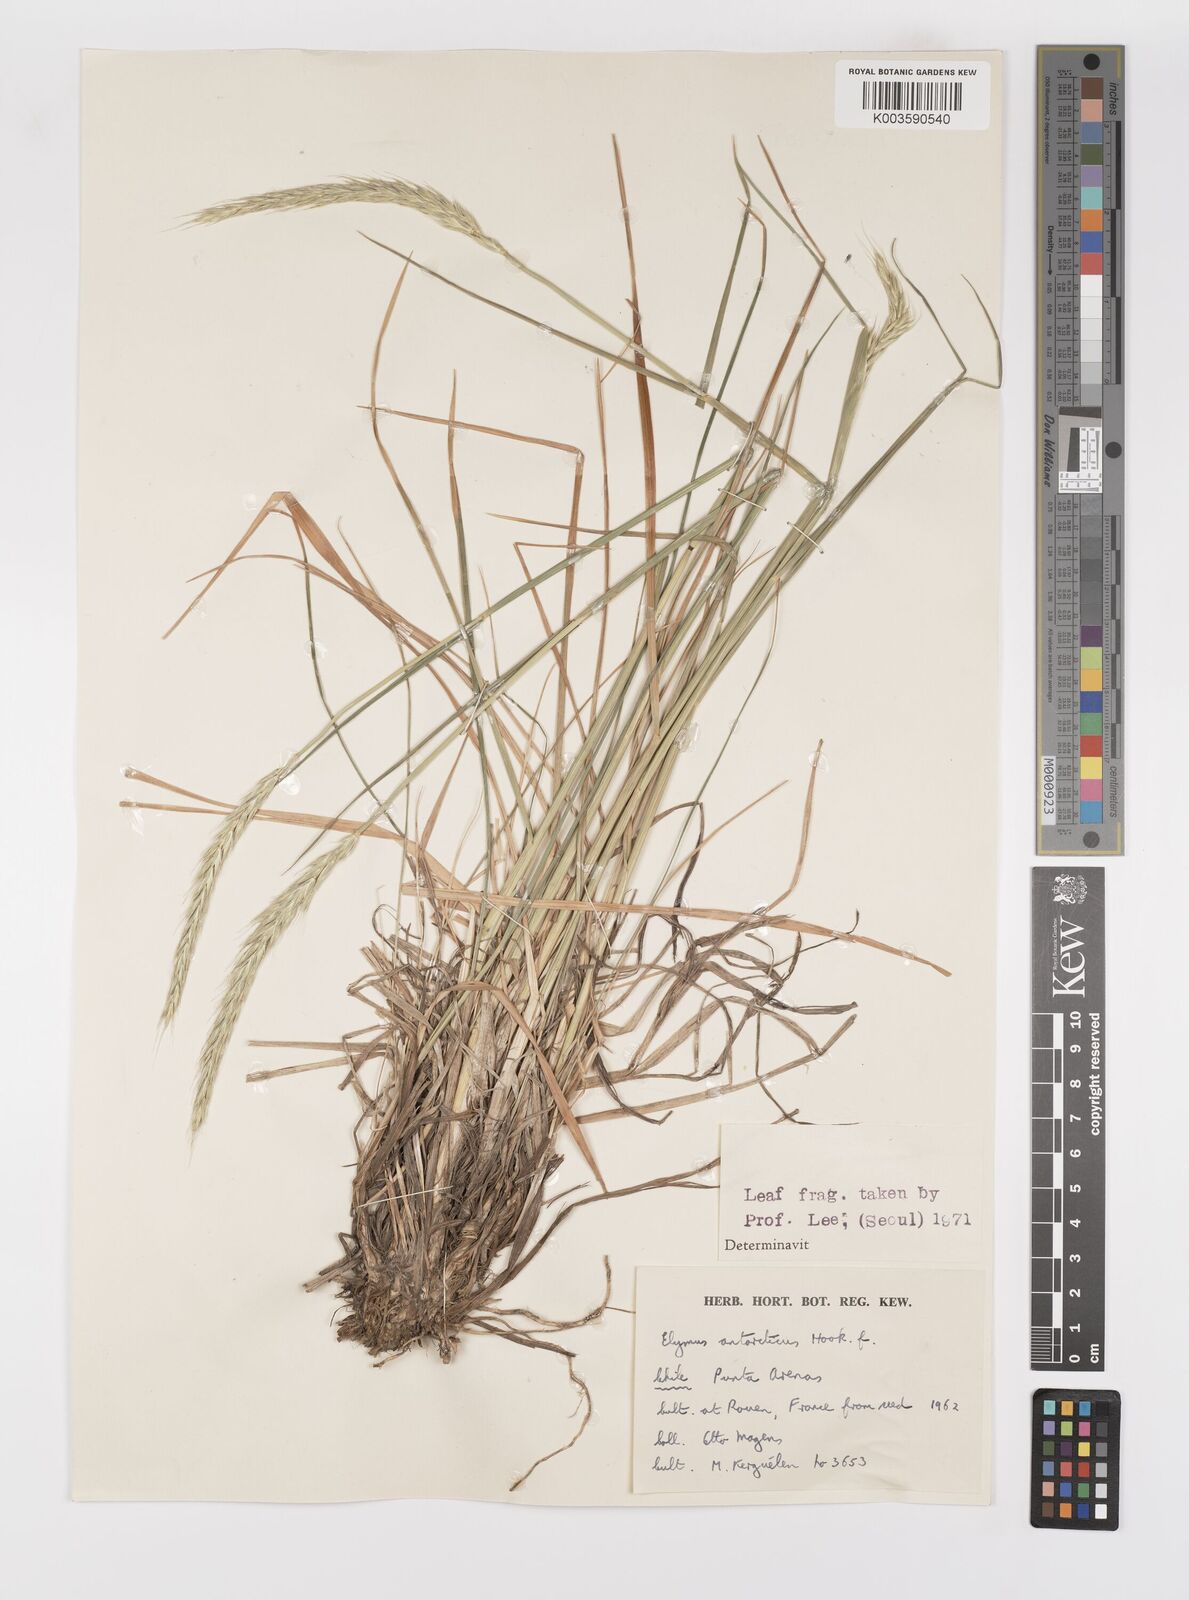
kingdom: Plantae
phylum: Tracheophyta
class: Liliopsida
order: Poales
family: Poaceae
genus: Elymus
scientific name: Elymus angulatus
